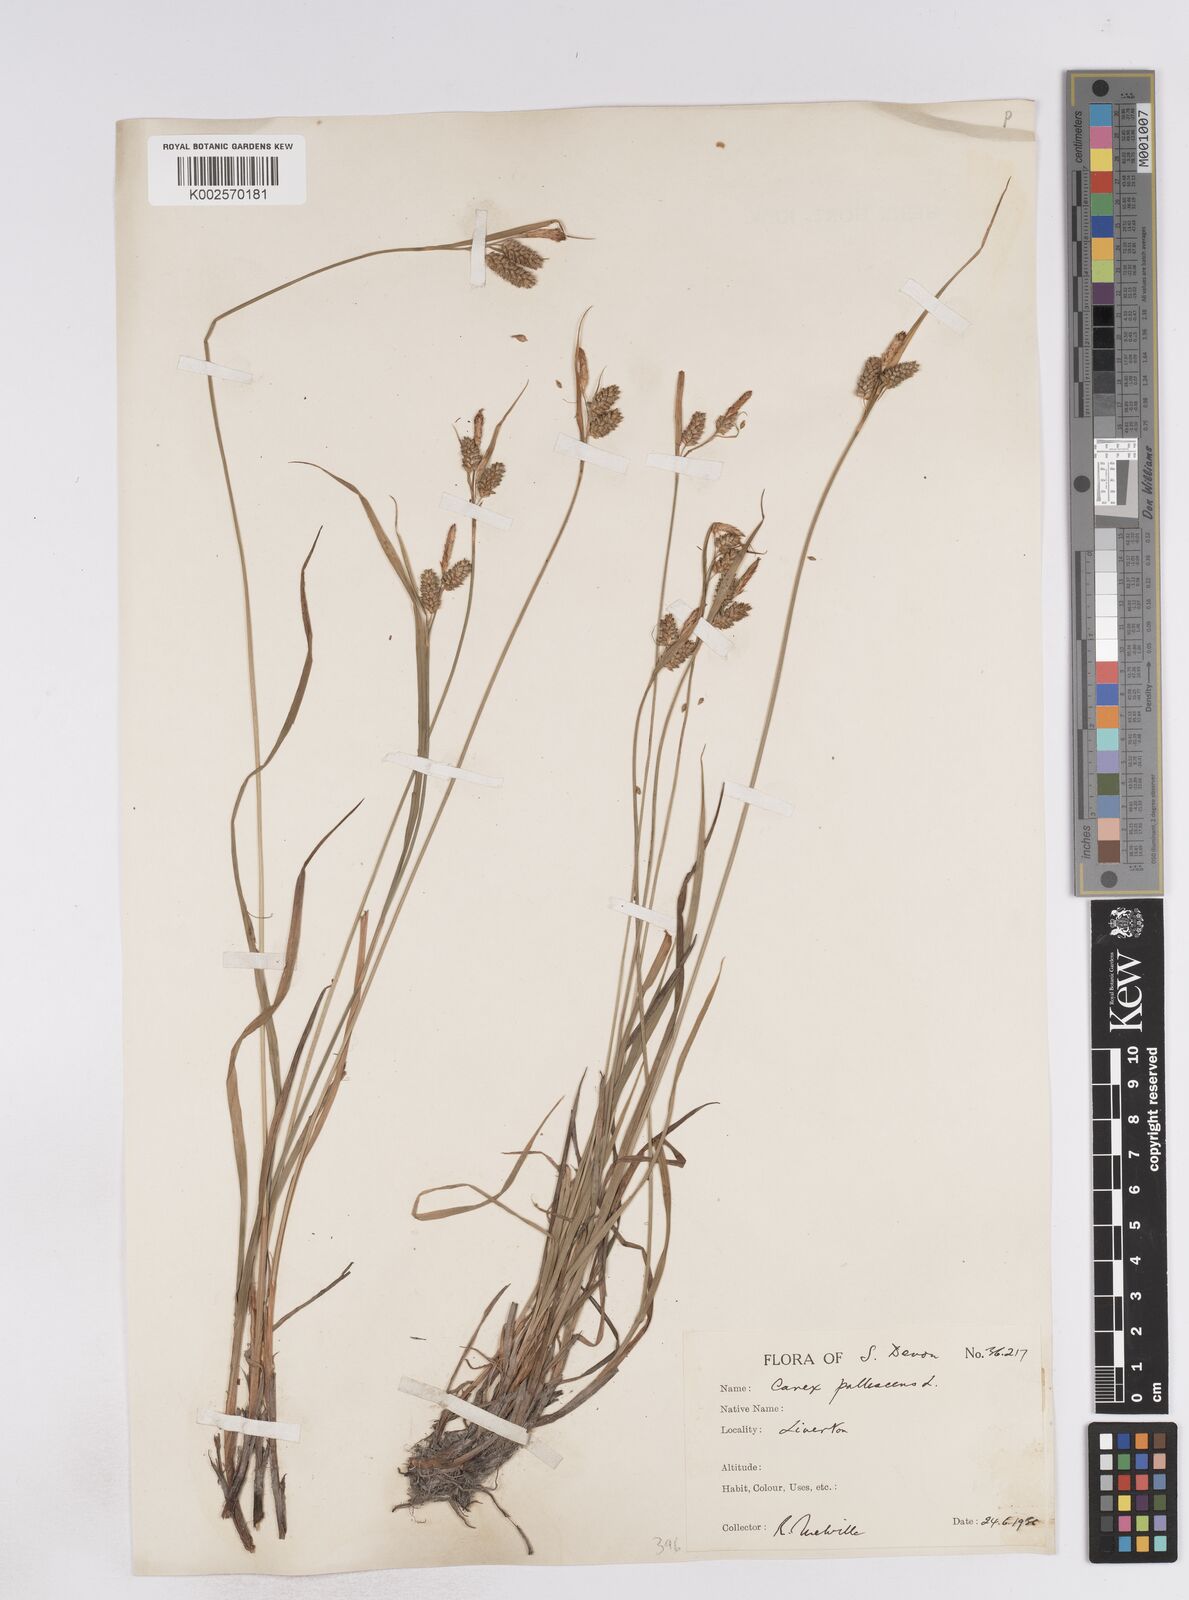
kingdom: Plantae
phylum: Tracheophyta
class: Liliopsida
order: Poales
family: Cyperaceae
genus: Carex
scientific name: Carex pallescens
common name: Pale sedge
